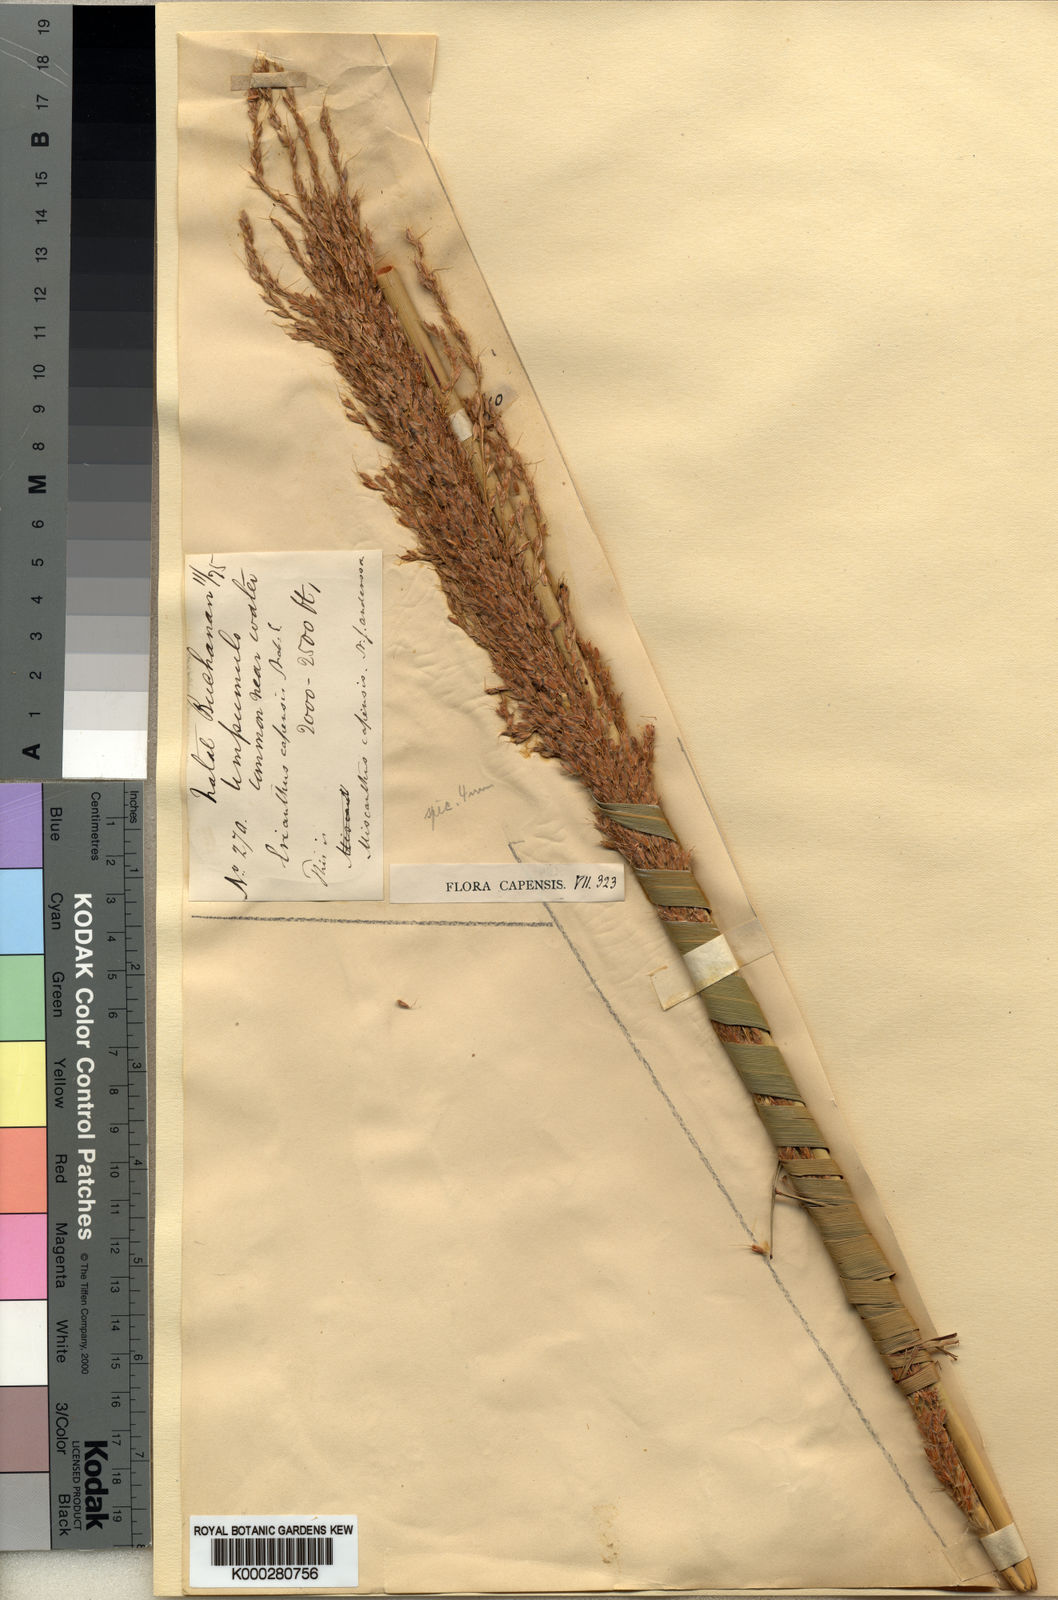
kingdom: Plantae
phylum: Tracheophyta
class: Liliopsida
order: Poales
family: Poaceae
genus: Miscanthus
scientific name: Miscanthus ecklonii
